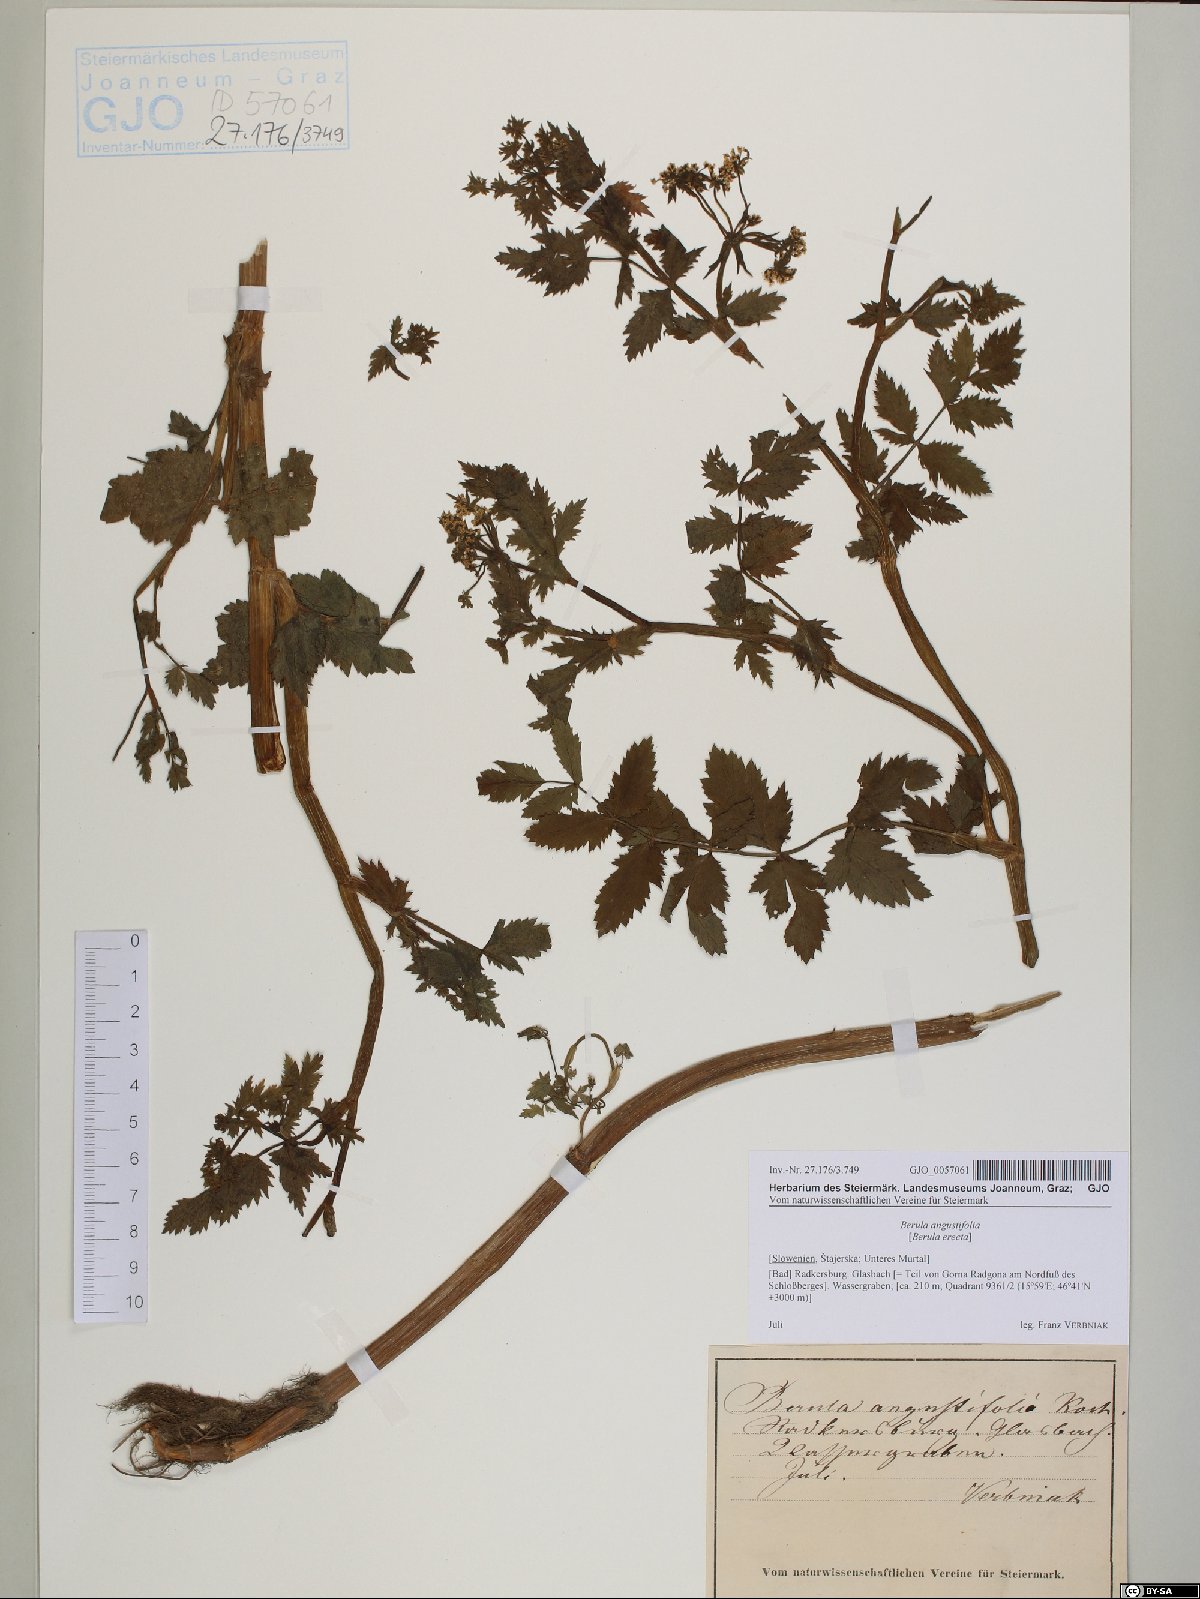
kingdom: Plantae
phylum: Tracheophyta
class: Magnoliopsida
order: Apiales
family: Apiaceae
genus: Berula
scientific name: Berula erecta
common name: Lesser water-parsnip
